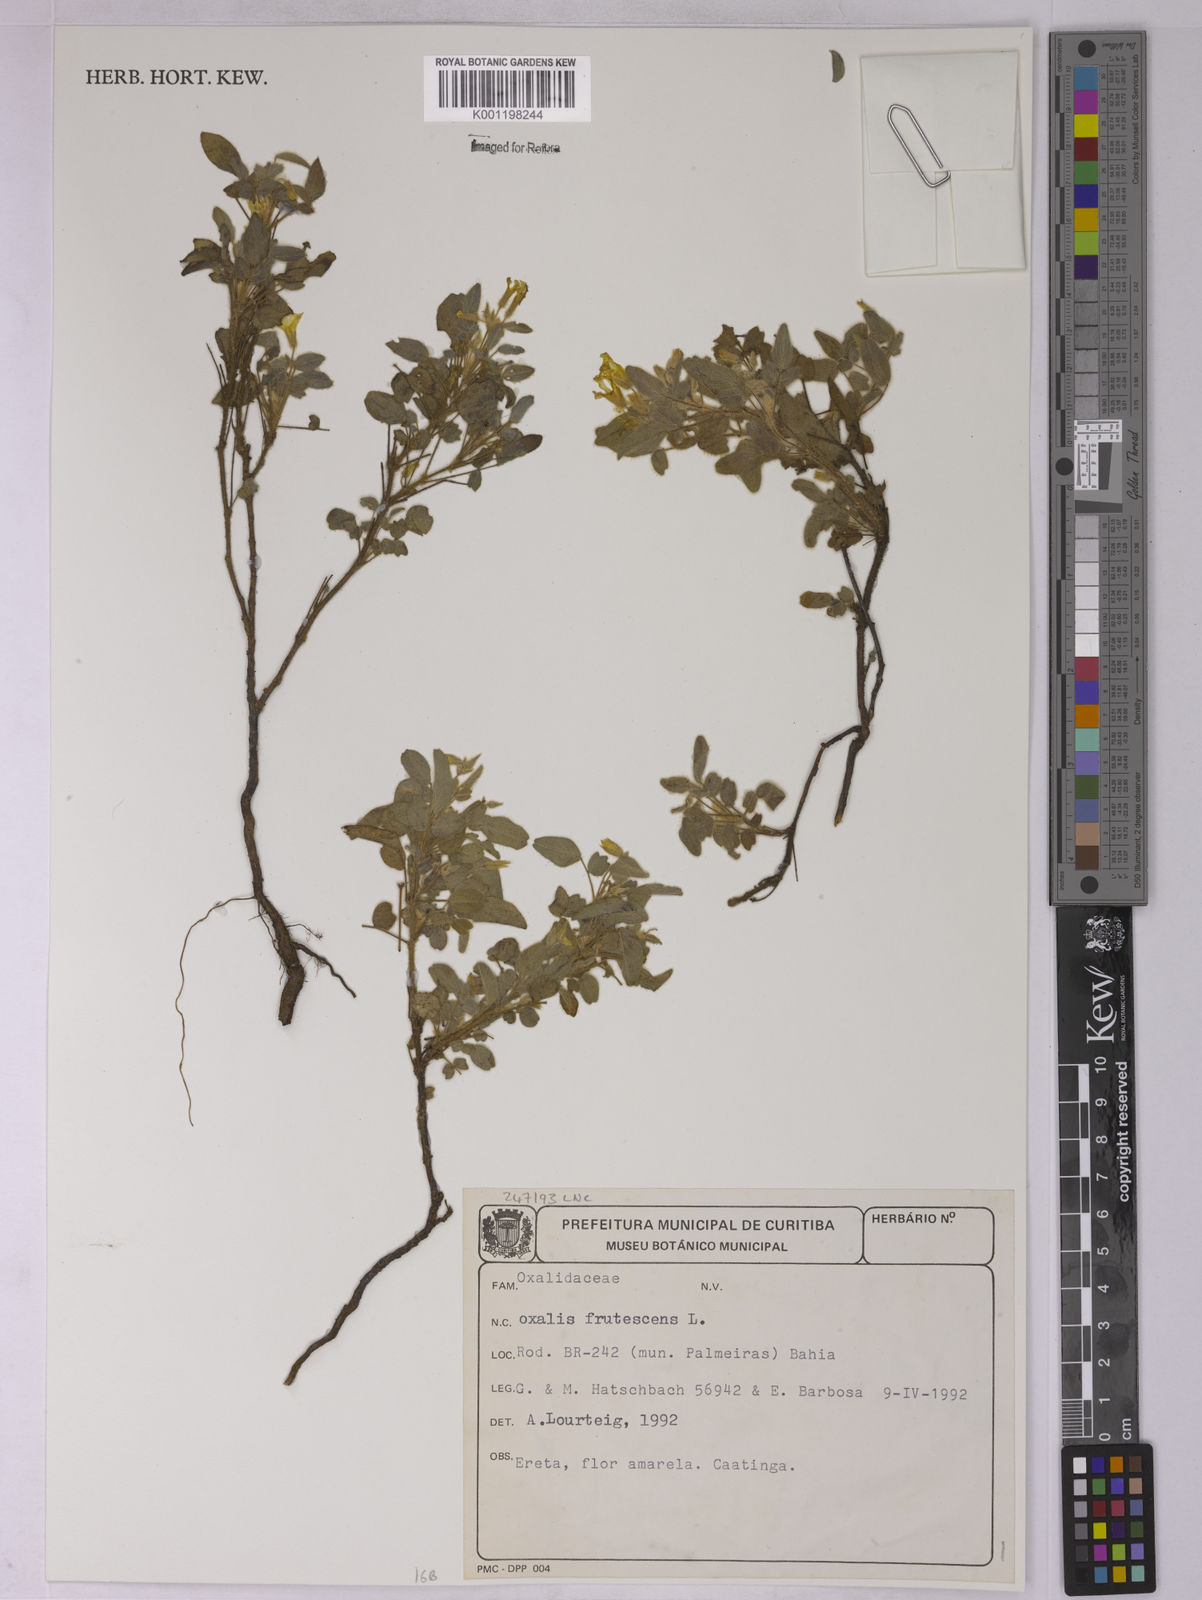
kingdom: Plantae
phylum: Tracheophyta
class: Magnoliopsida
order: Oxalidales
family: Oxalidaceae
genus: Oxalis
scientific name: Oxalis frutescens
